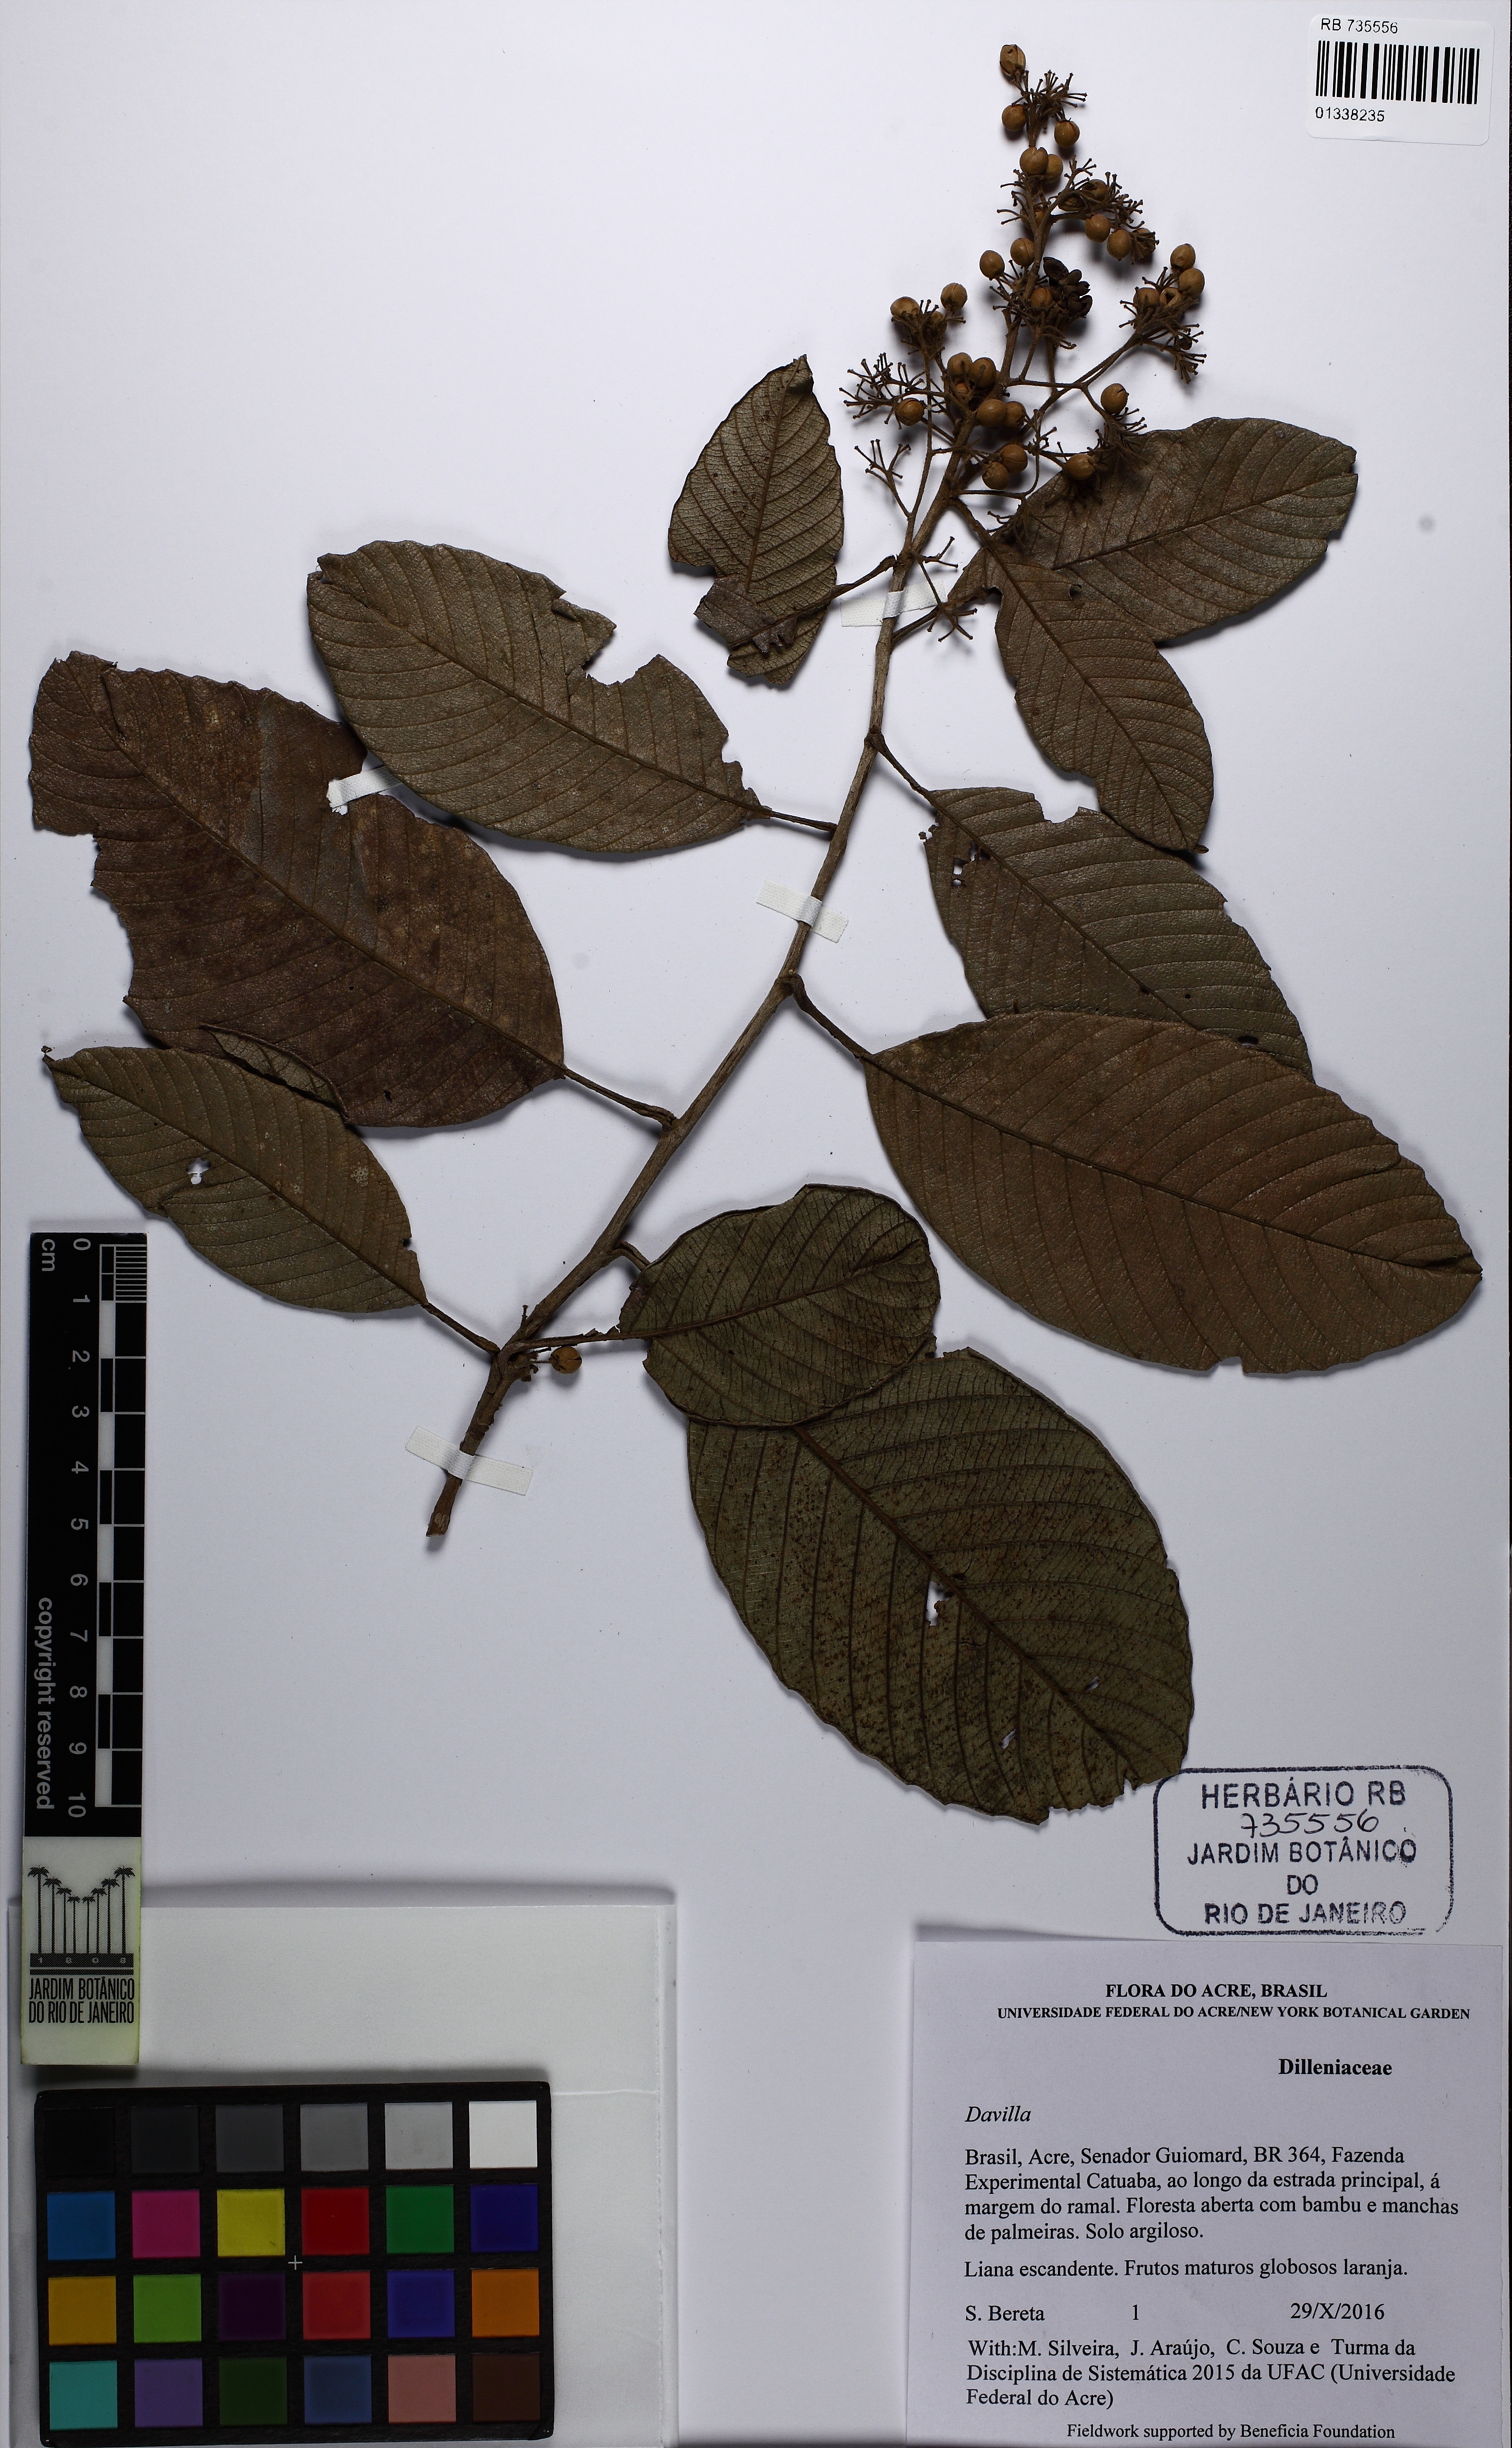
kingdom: Plantae
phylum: Tracheophyta
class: Magnoliopsida
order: Dilleniales
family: Dilleniaceae
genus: Davilla
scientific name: Davilla nitida
